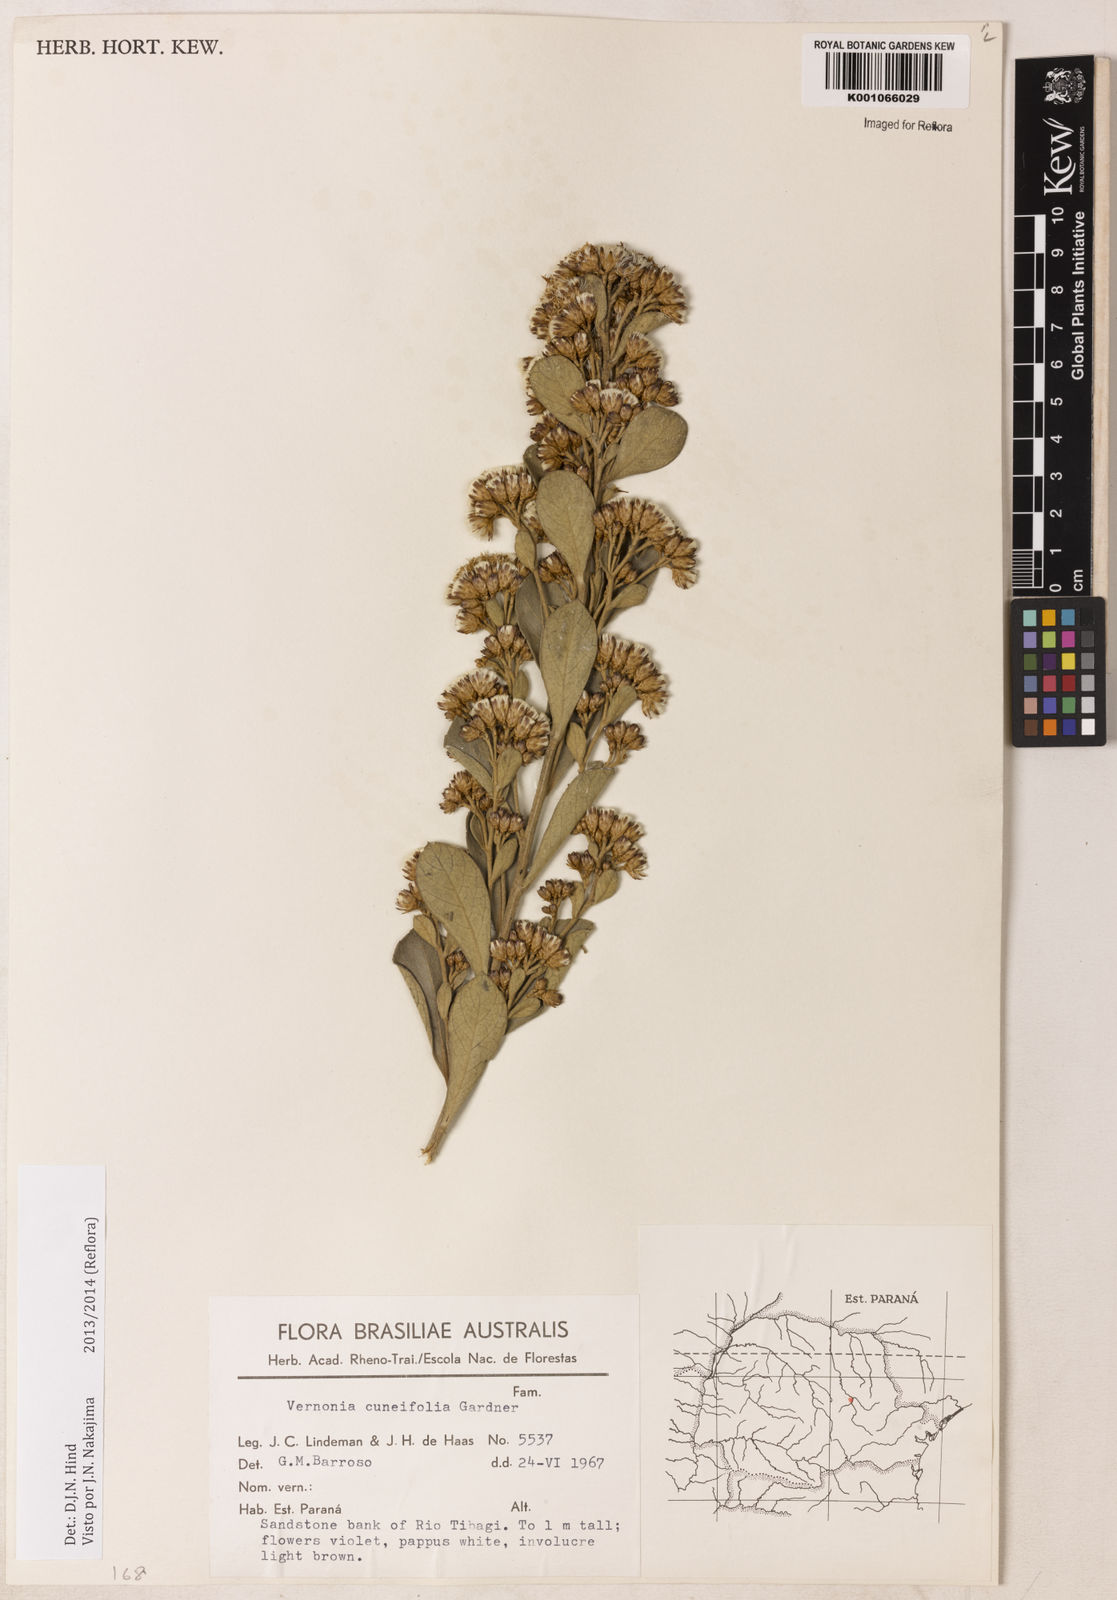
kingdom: Plantae
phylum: Tracheophyta
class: Magnoliopsida
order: Asterales
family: Asteraceae
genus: Vernonanthura
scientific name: Vernonanthura cuneifolia
